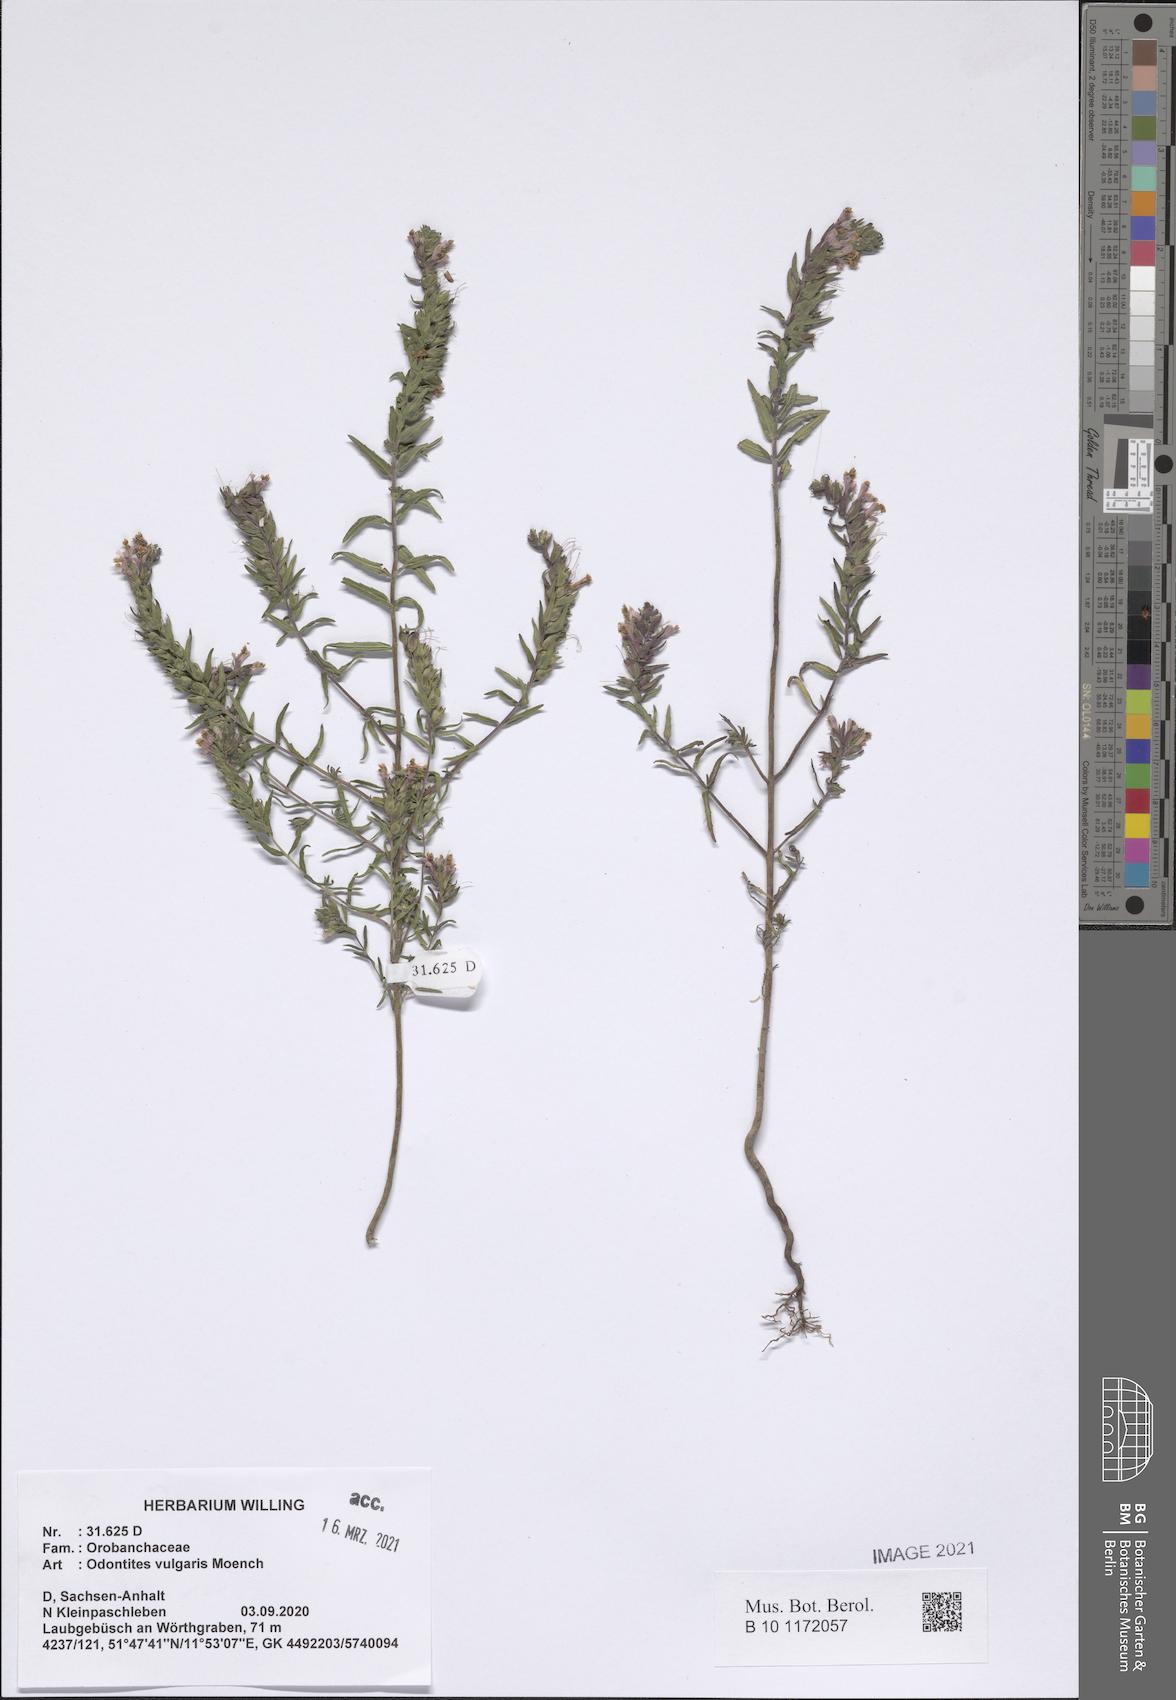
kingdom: Plantae
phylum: Tracheophyta
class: Magnoliopsida
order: Lamiales
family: Orobanchaceae
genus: Odontites
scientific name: Odontites vulgaris
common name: Broomrape
